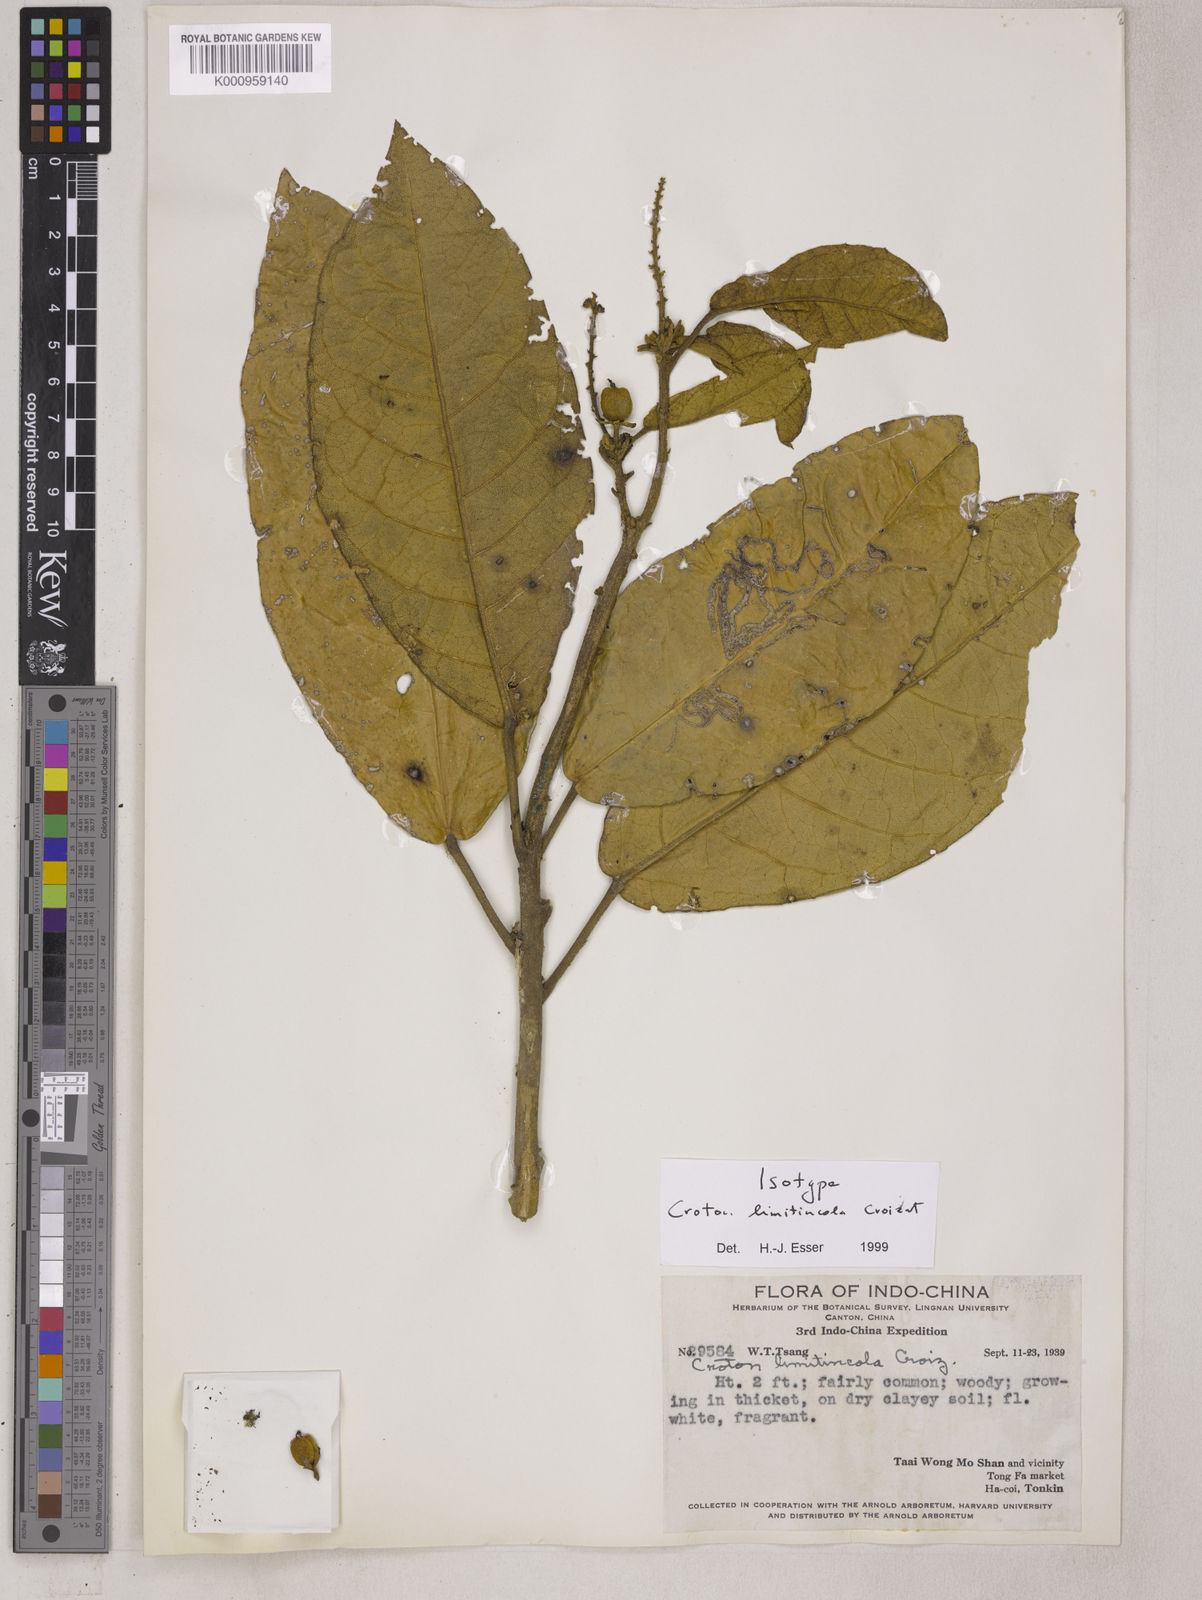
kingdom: Plantae
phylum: Tracheophyta
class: Magnoliopsida
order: Malpighiales
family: Euphorbiaceae
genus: Croton
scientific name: Croton laniflorus
